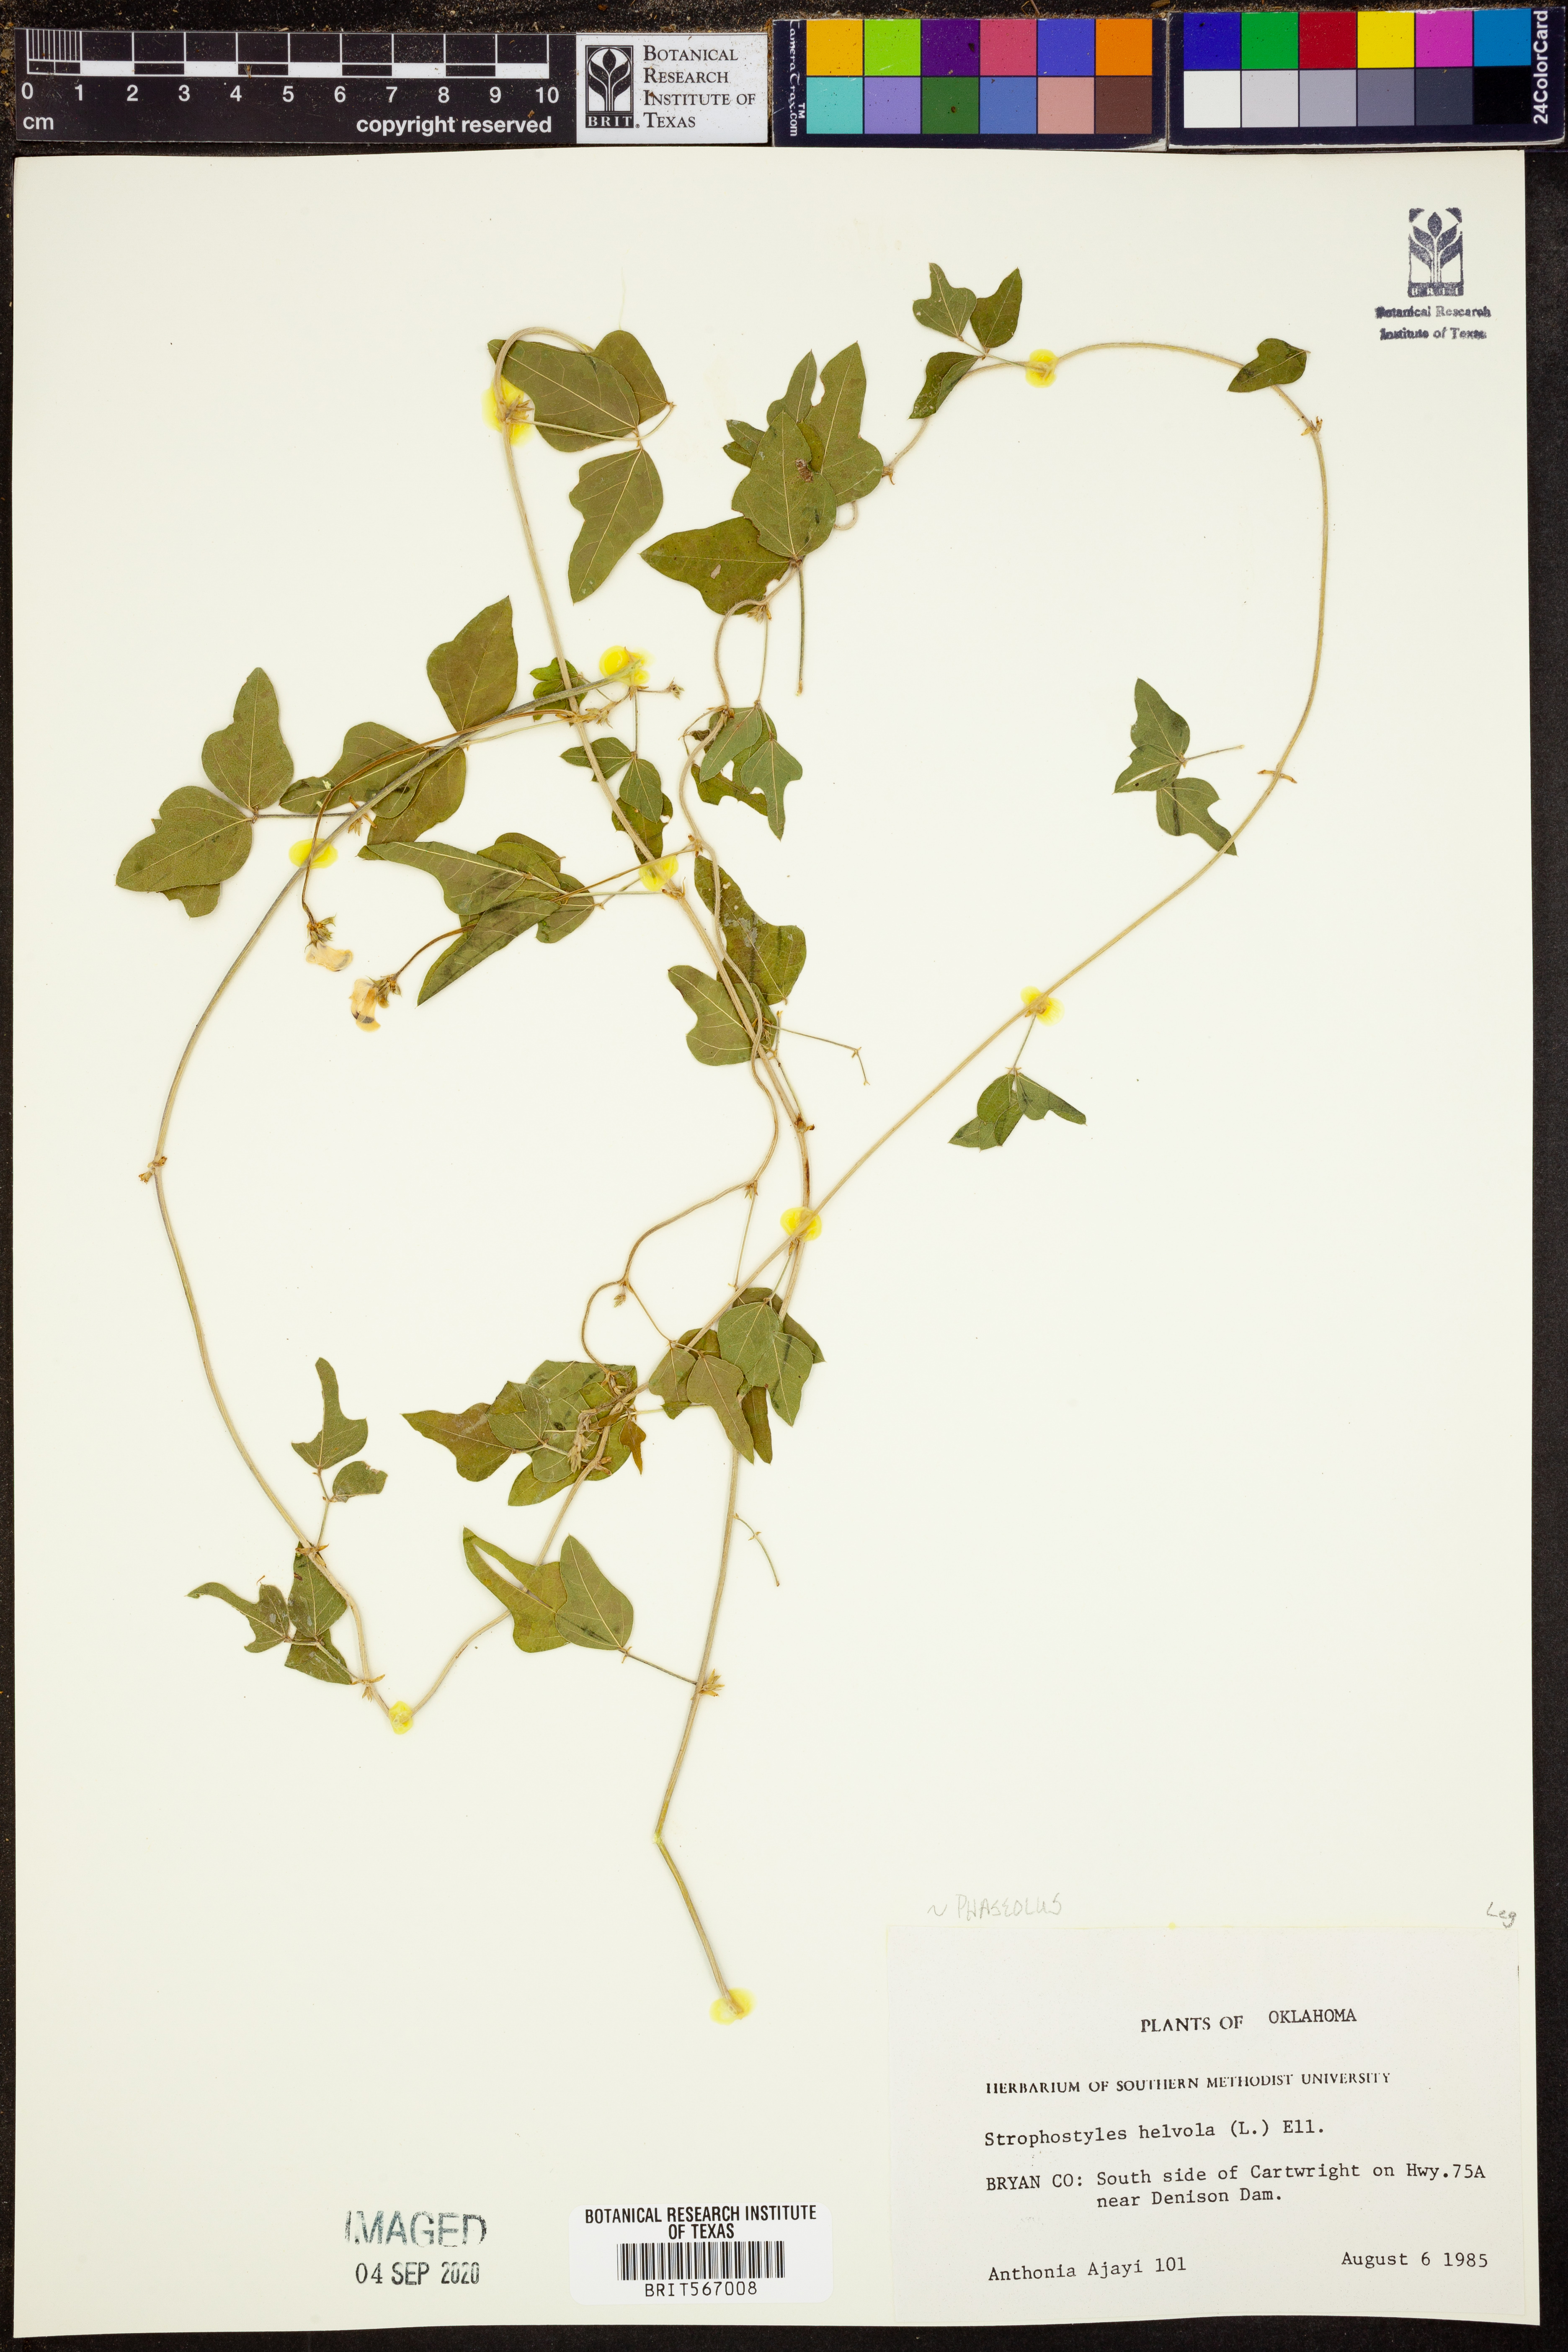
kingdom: Plantae
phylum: Tracheophyta
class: Magnoliopsida
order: Fabales
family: Fabaceae
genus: Strophostyles
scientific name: Strophostyles helvola
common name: Trailing wild bean
